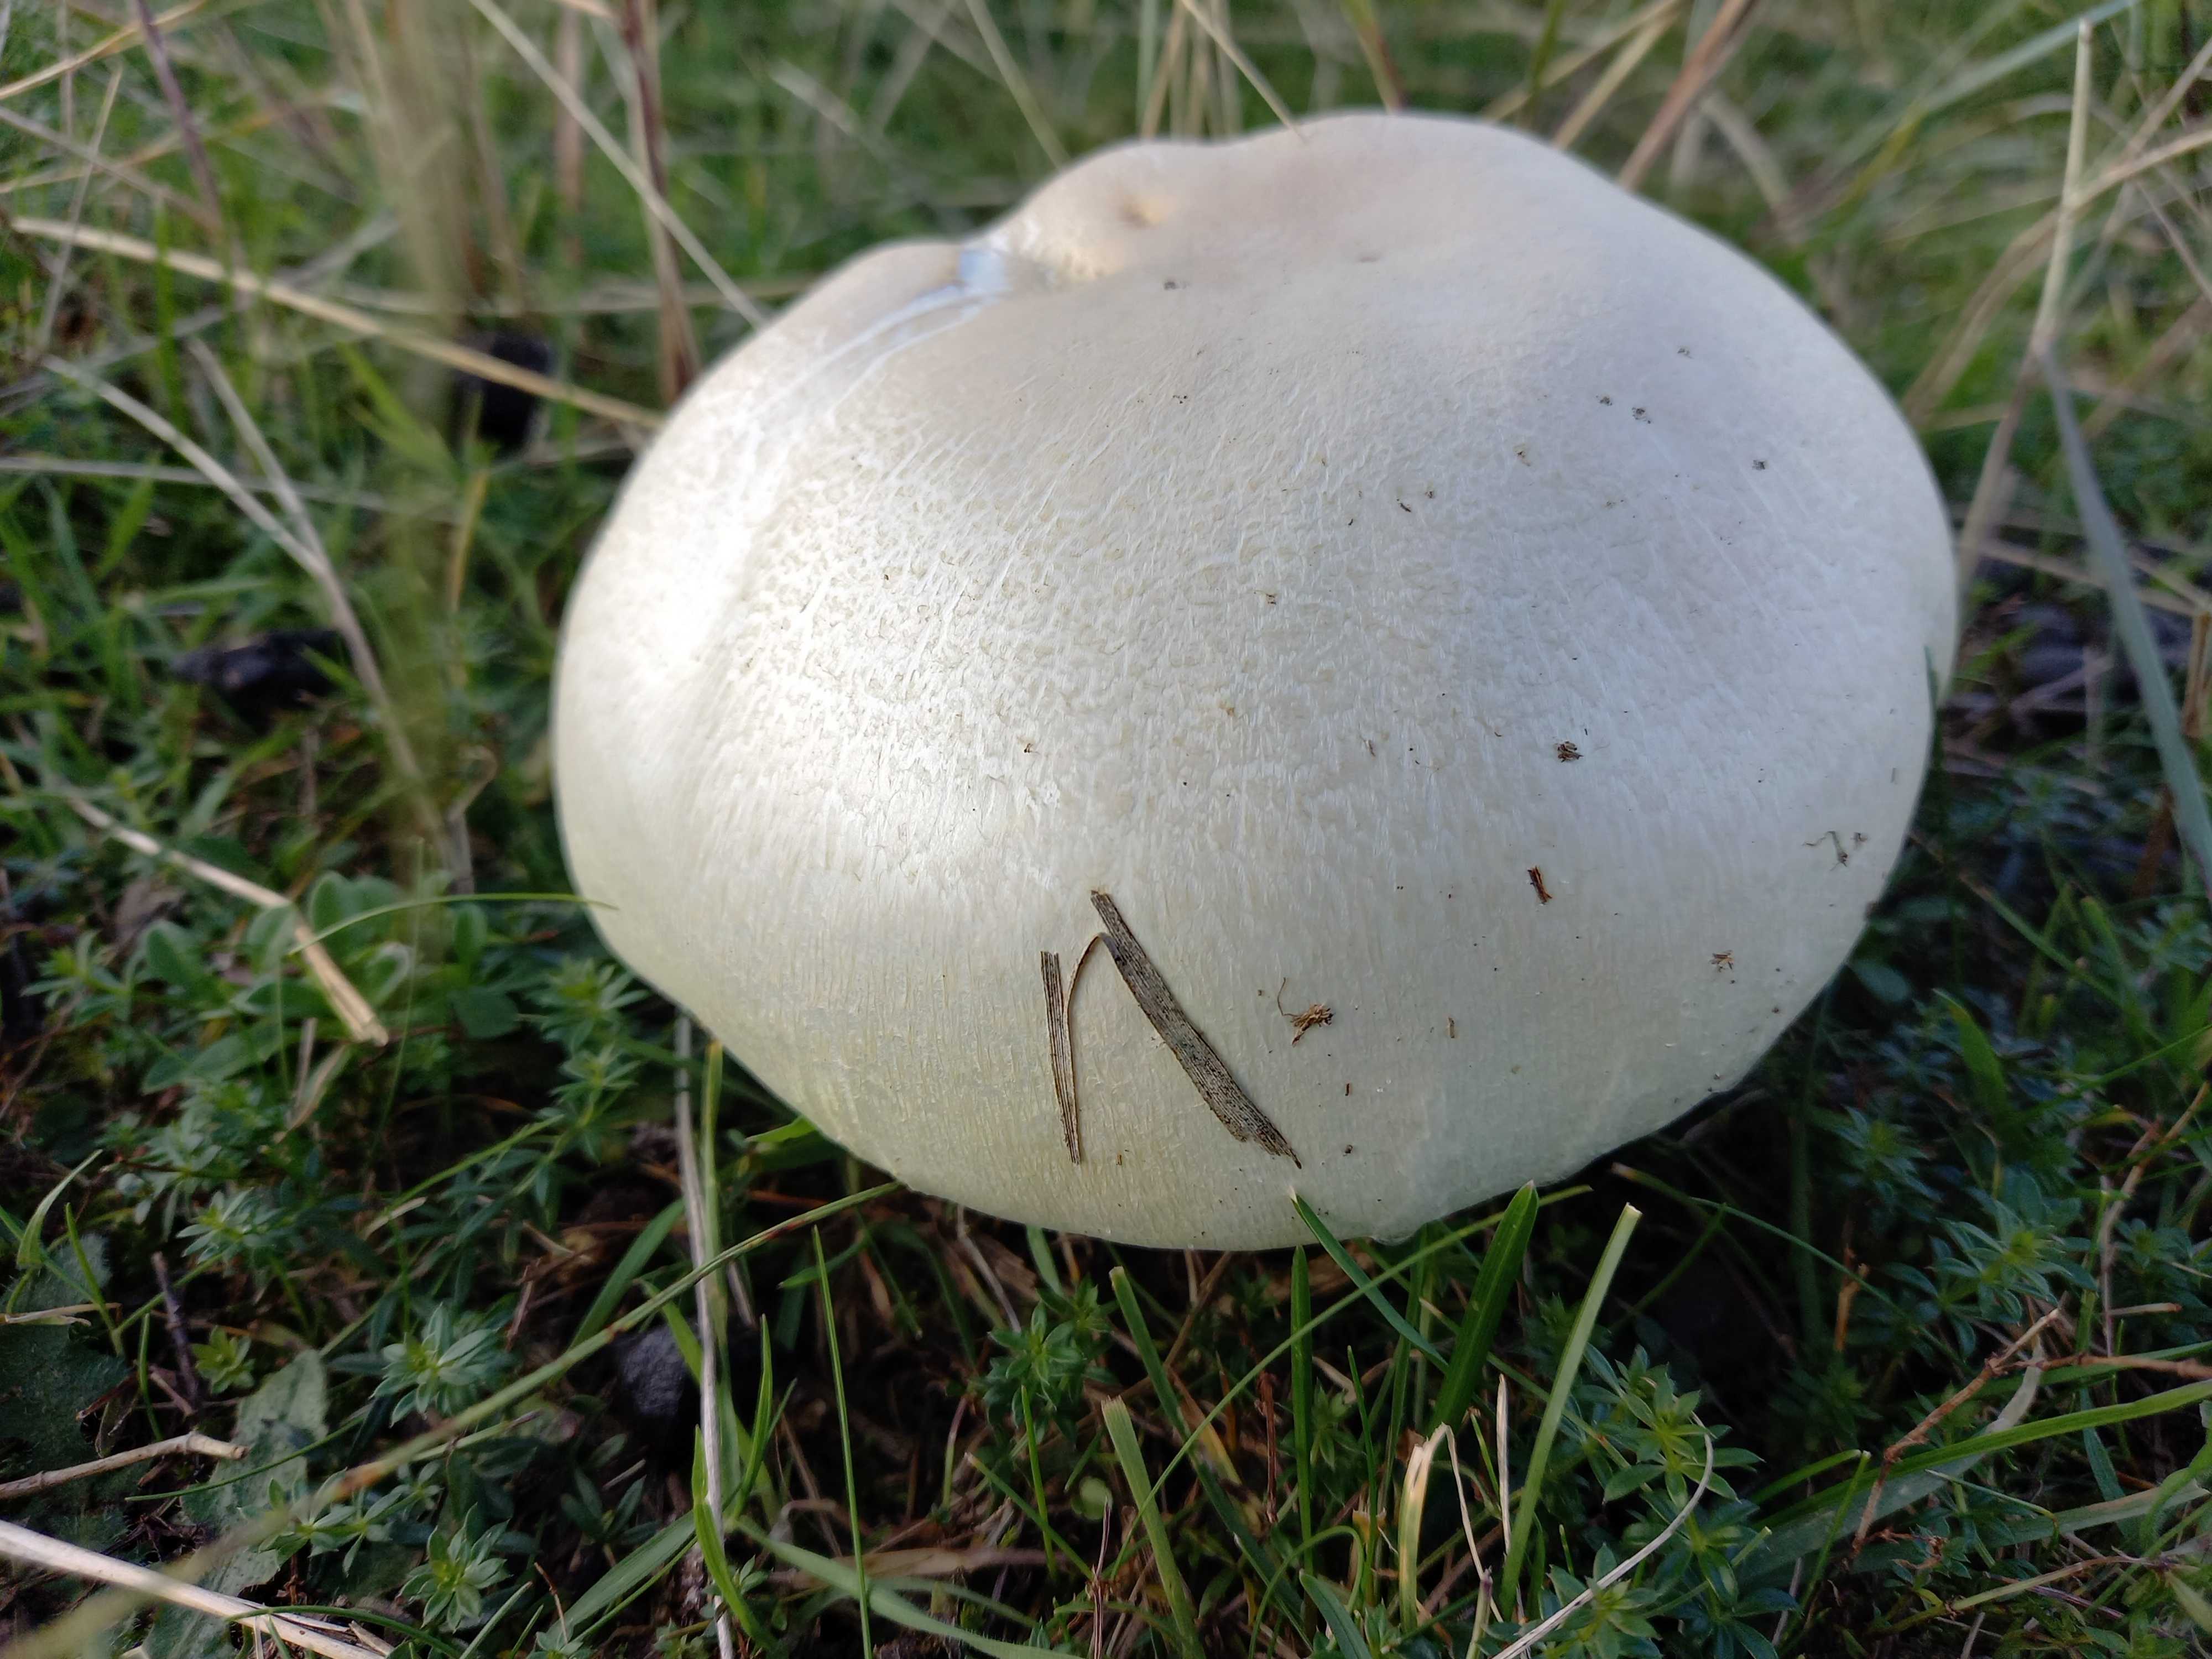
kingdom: Fungi
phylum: Basidiomycota
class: Agaricomycetes
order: Agaricales
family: Agaricaceae
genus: Agaricus
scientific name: Agaricus arvensis
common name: ager-champignon
